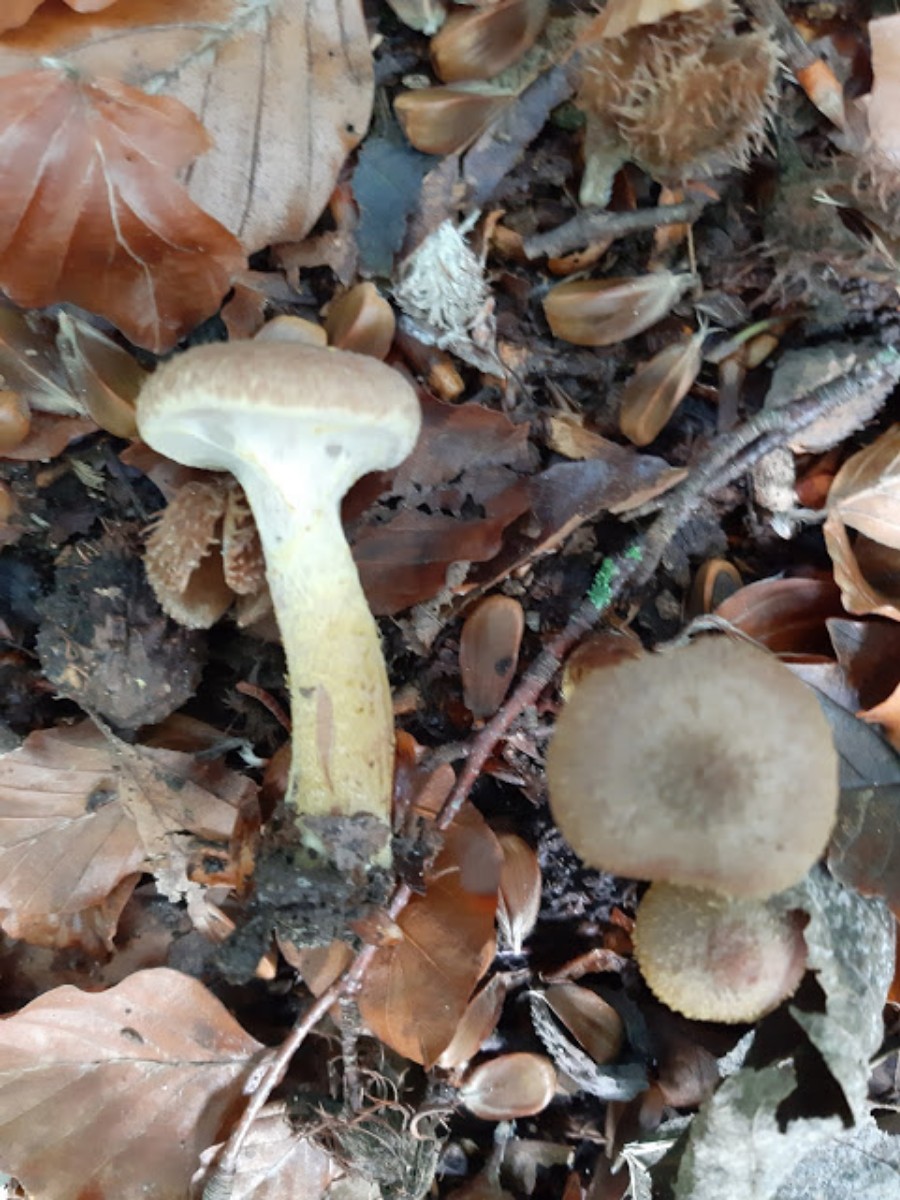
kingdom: Fungi
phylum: Basidiomycota
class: Agaricomycetes
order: Agaricales
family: Physalacriaceae
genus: Armillaria
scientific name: Armillaria lutea
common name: køllestokket honningsvamp
